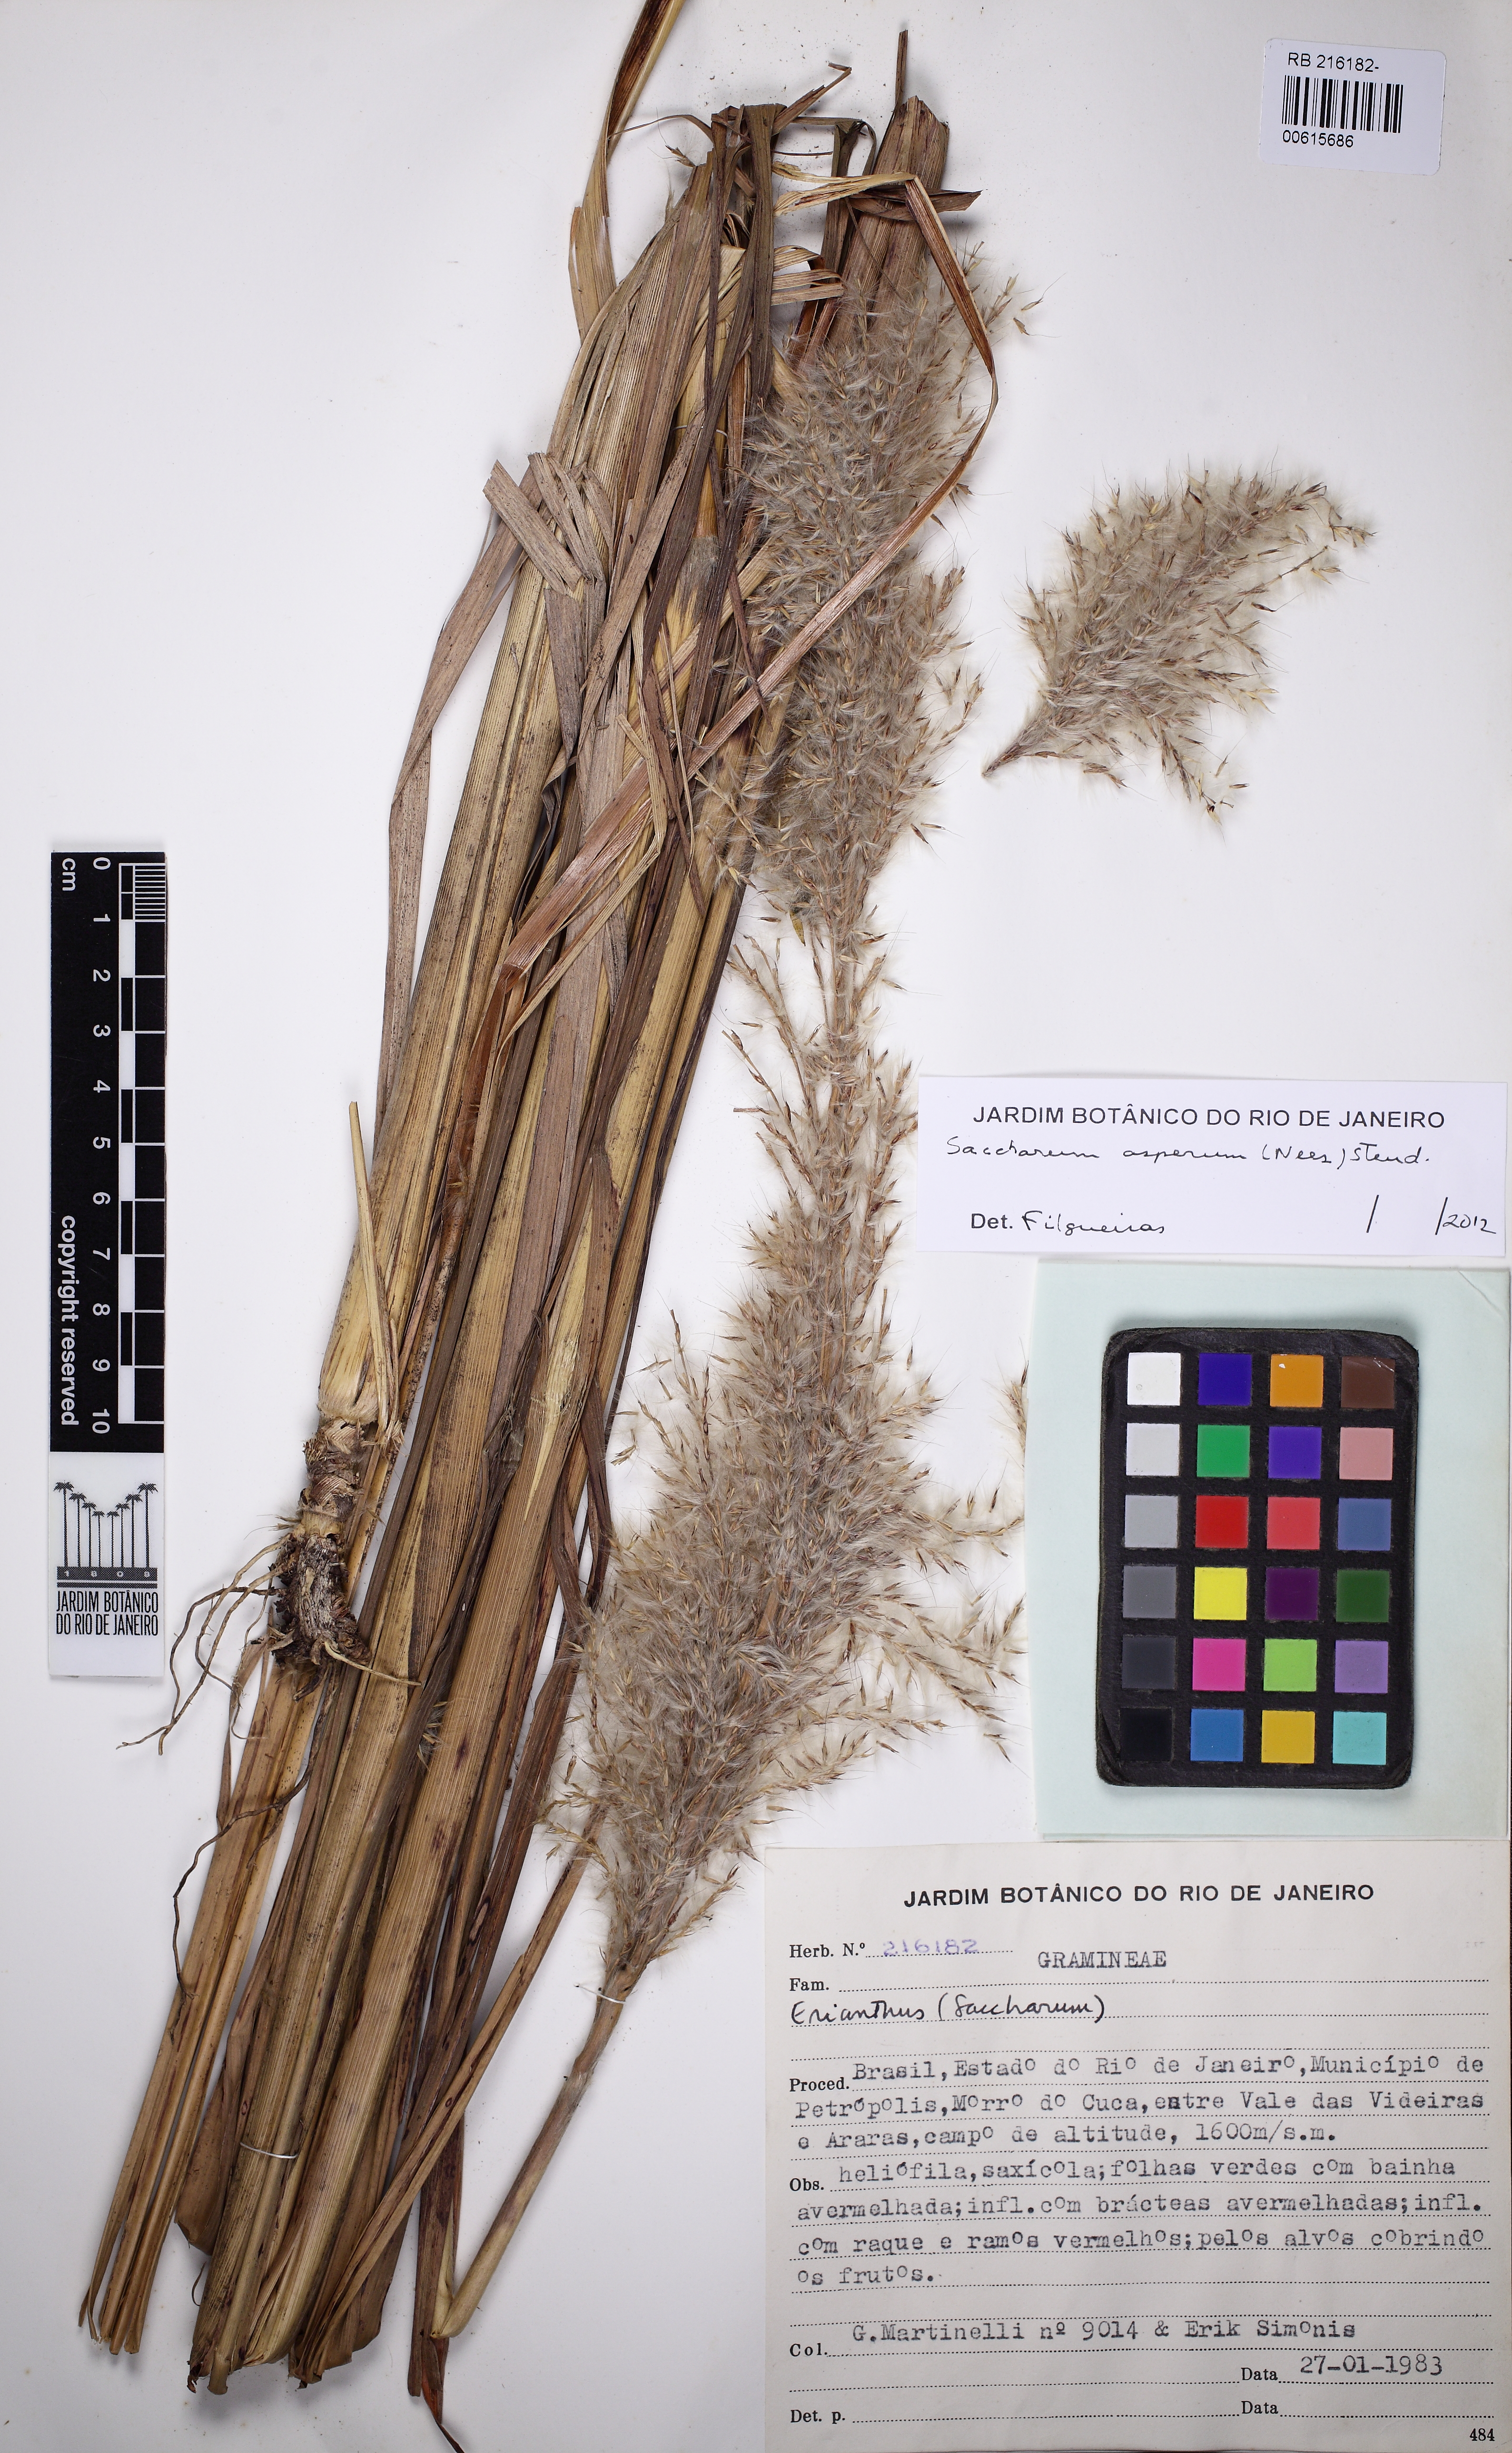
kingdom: Plantae
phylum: Tracheophyta
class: Liliopsida
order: Poales
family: Poaceae
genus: Erianthus
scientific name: Erianthus asper
